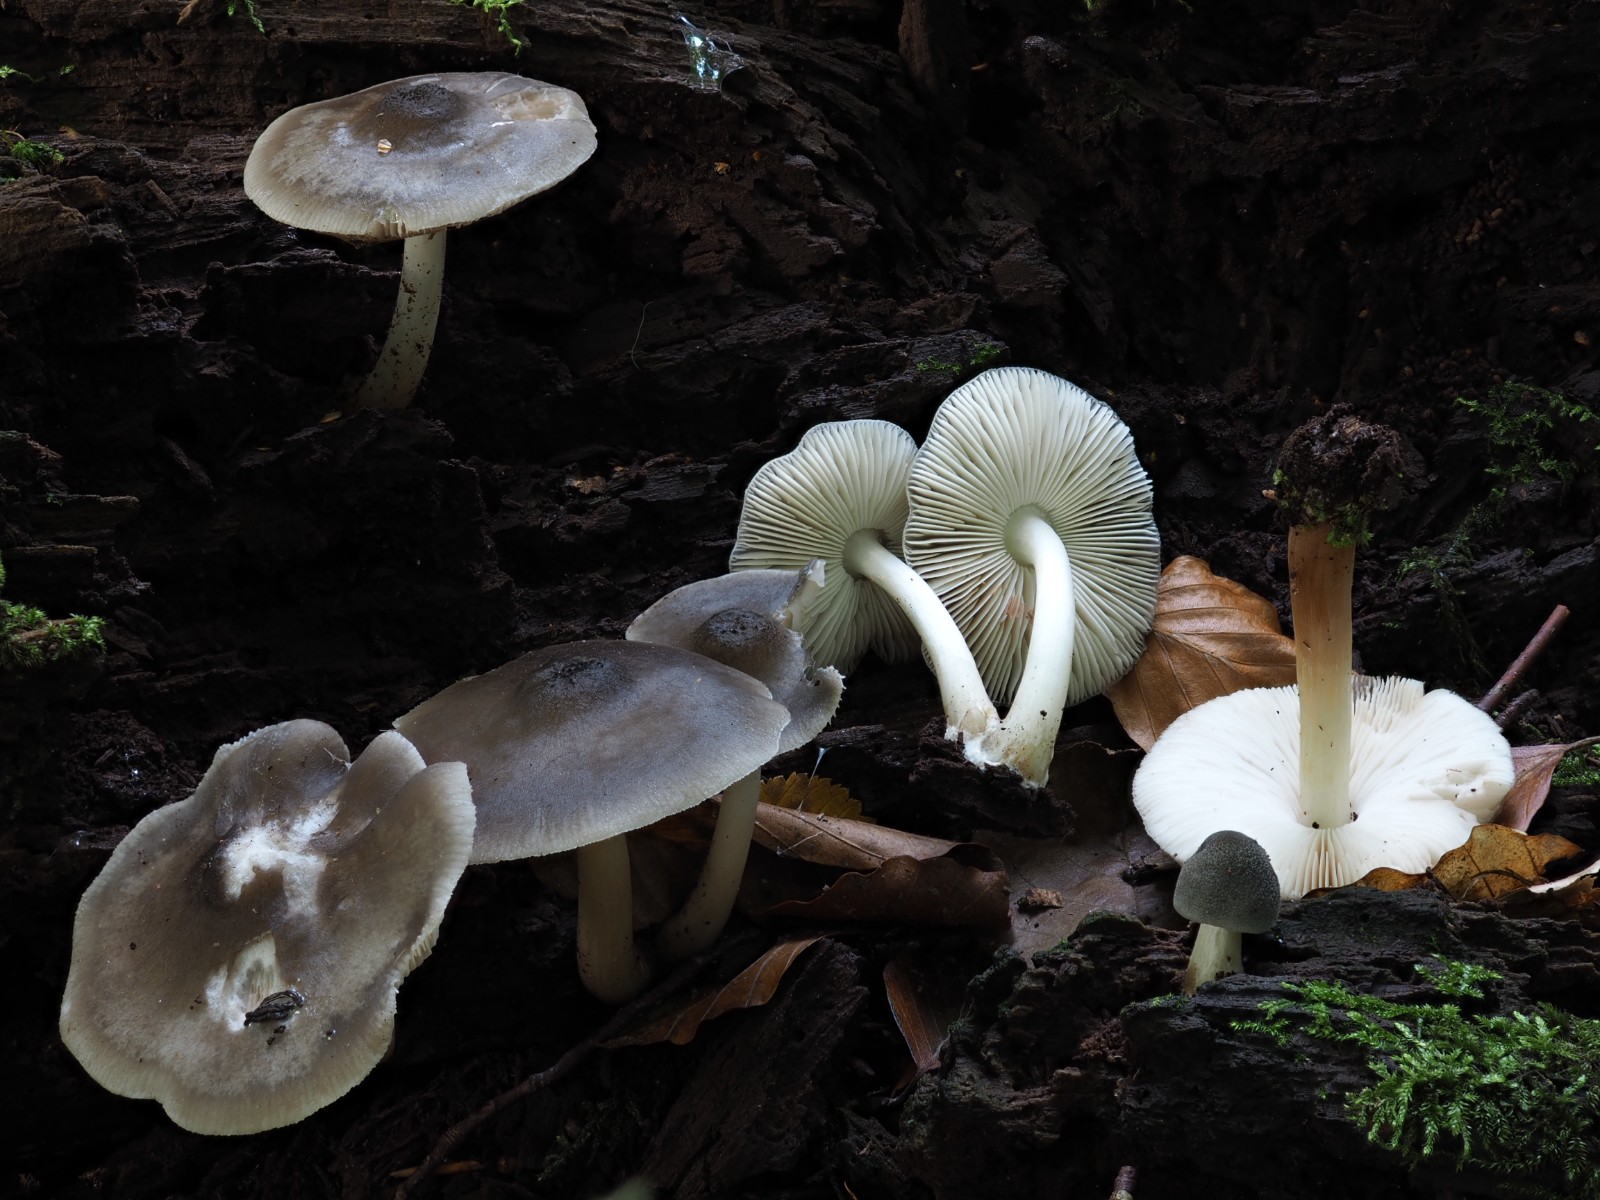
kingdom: Fungi
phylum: Basidiomycota
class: Agaricomycetes
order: Agaricales
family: Pluteaceae
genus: Pluteus
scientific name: Pluteus salicinus
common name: stiv skærmhat
